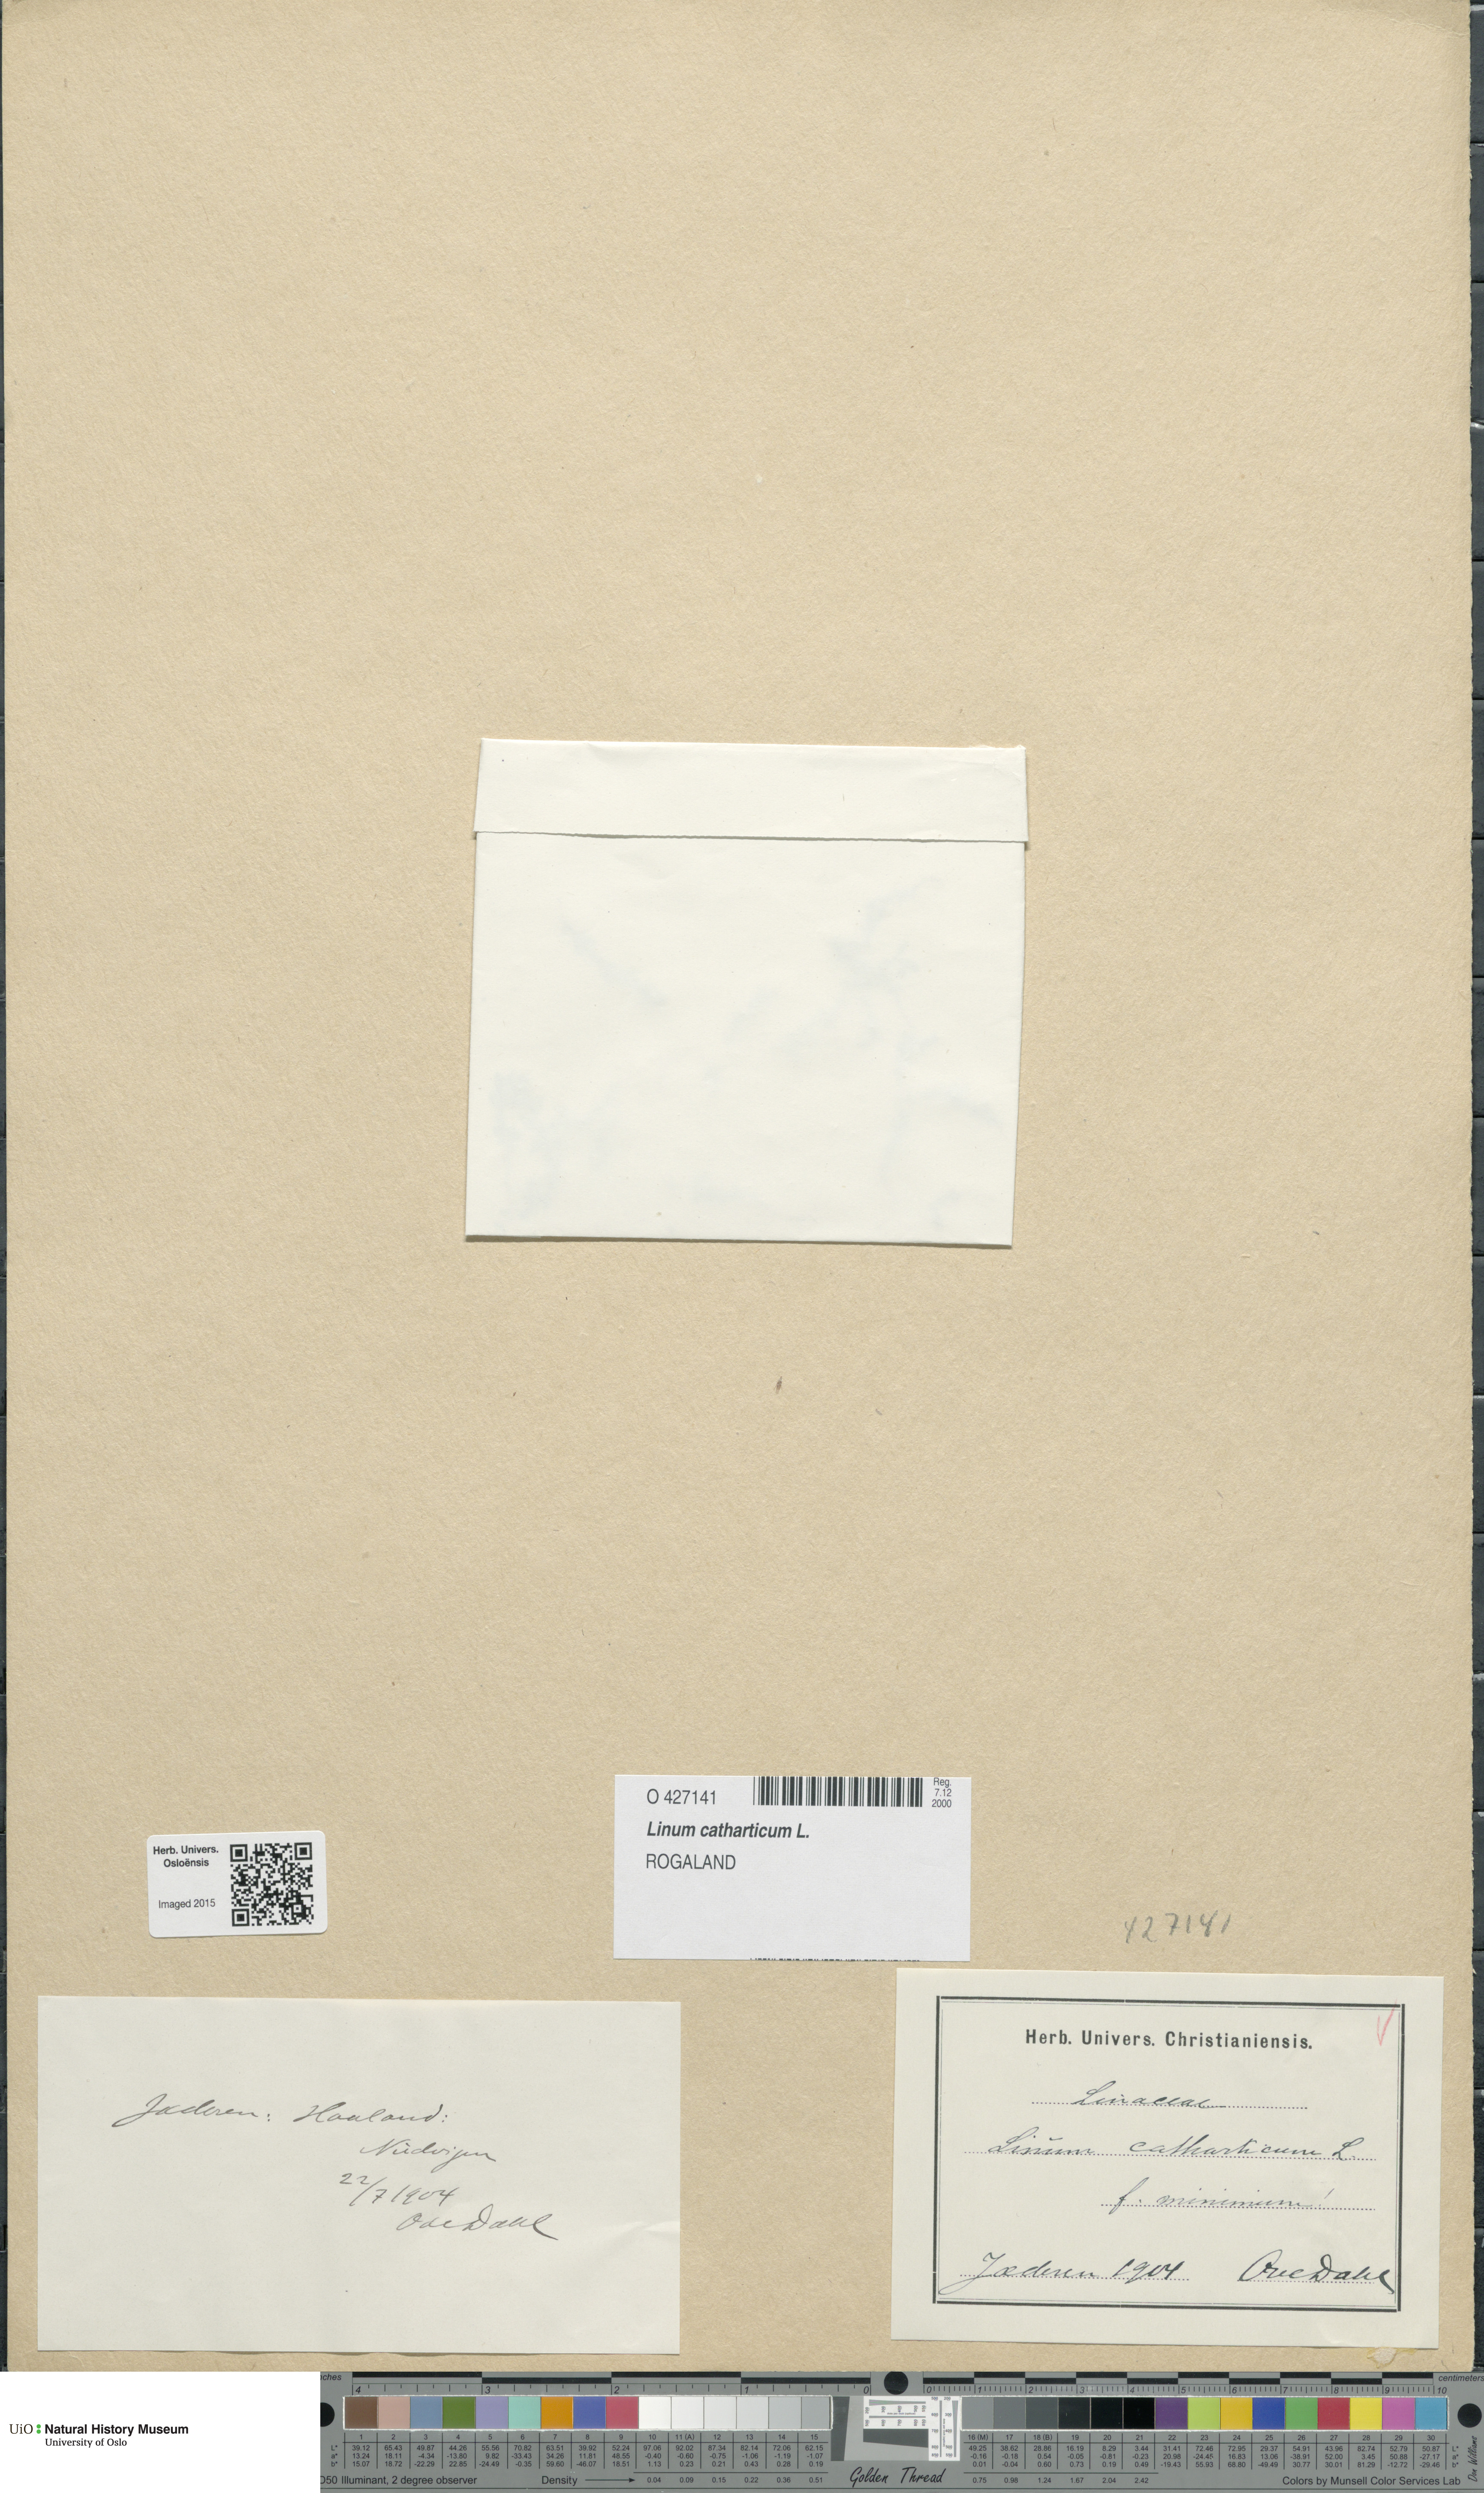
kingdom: Plantae
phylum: Tracheophyta
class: Magnoliopsida
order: Malpighiales
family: Linaceae
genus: Linum
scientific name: Linum catharticum
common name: Fairy flax
